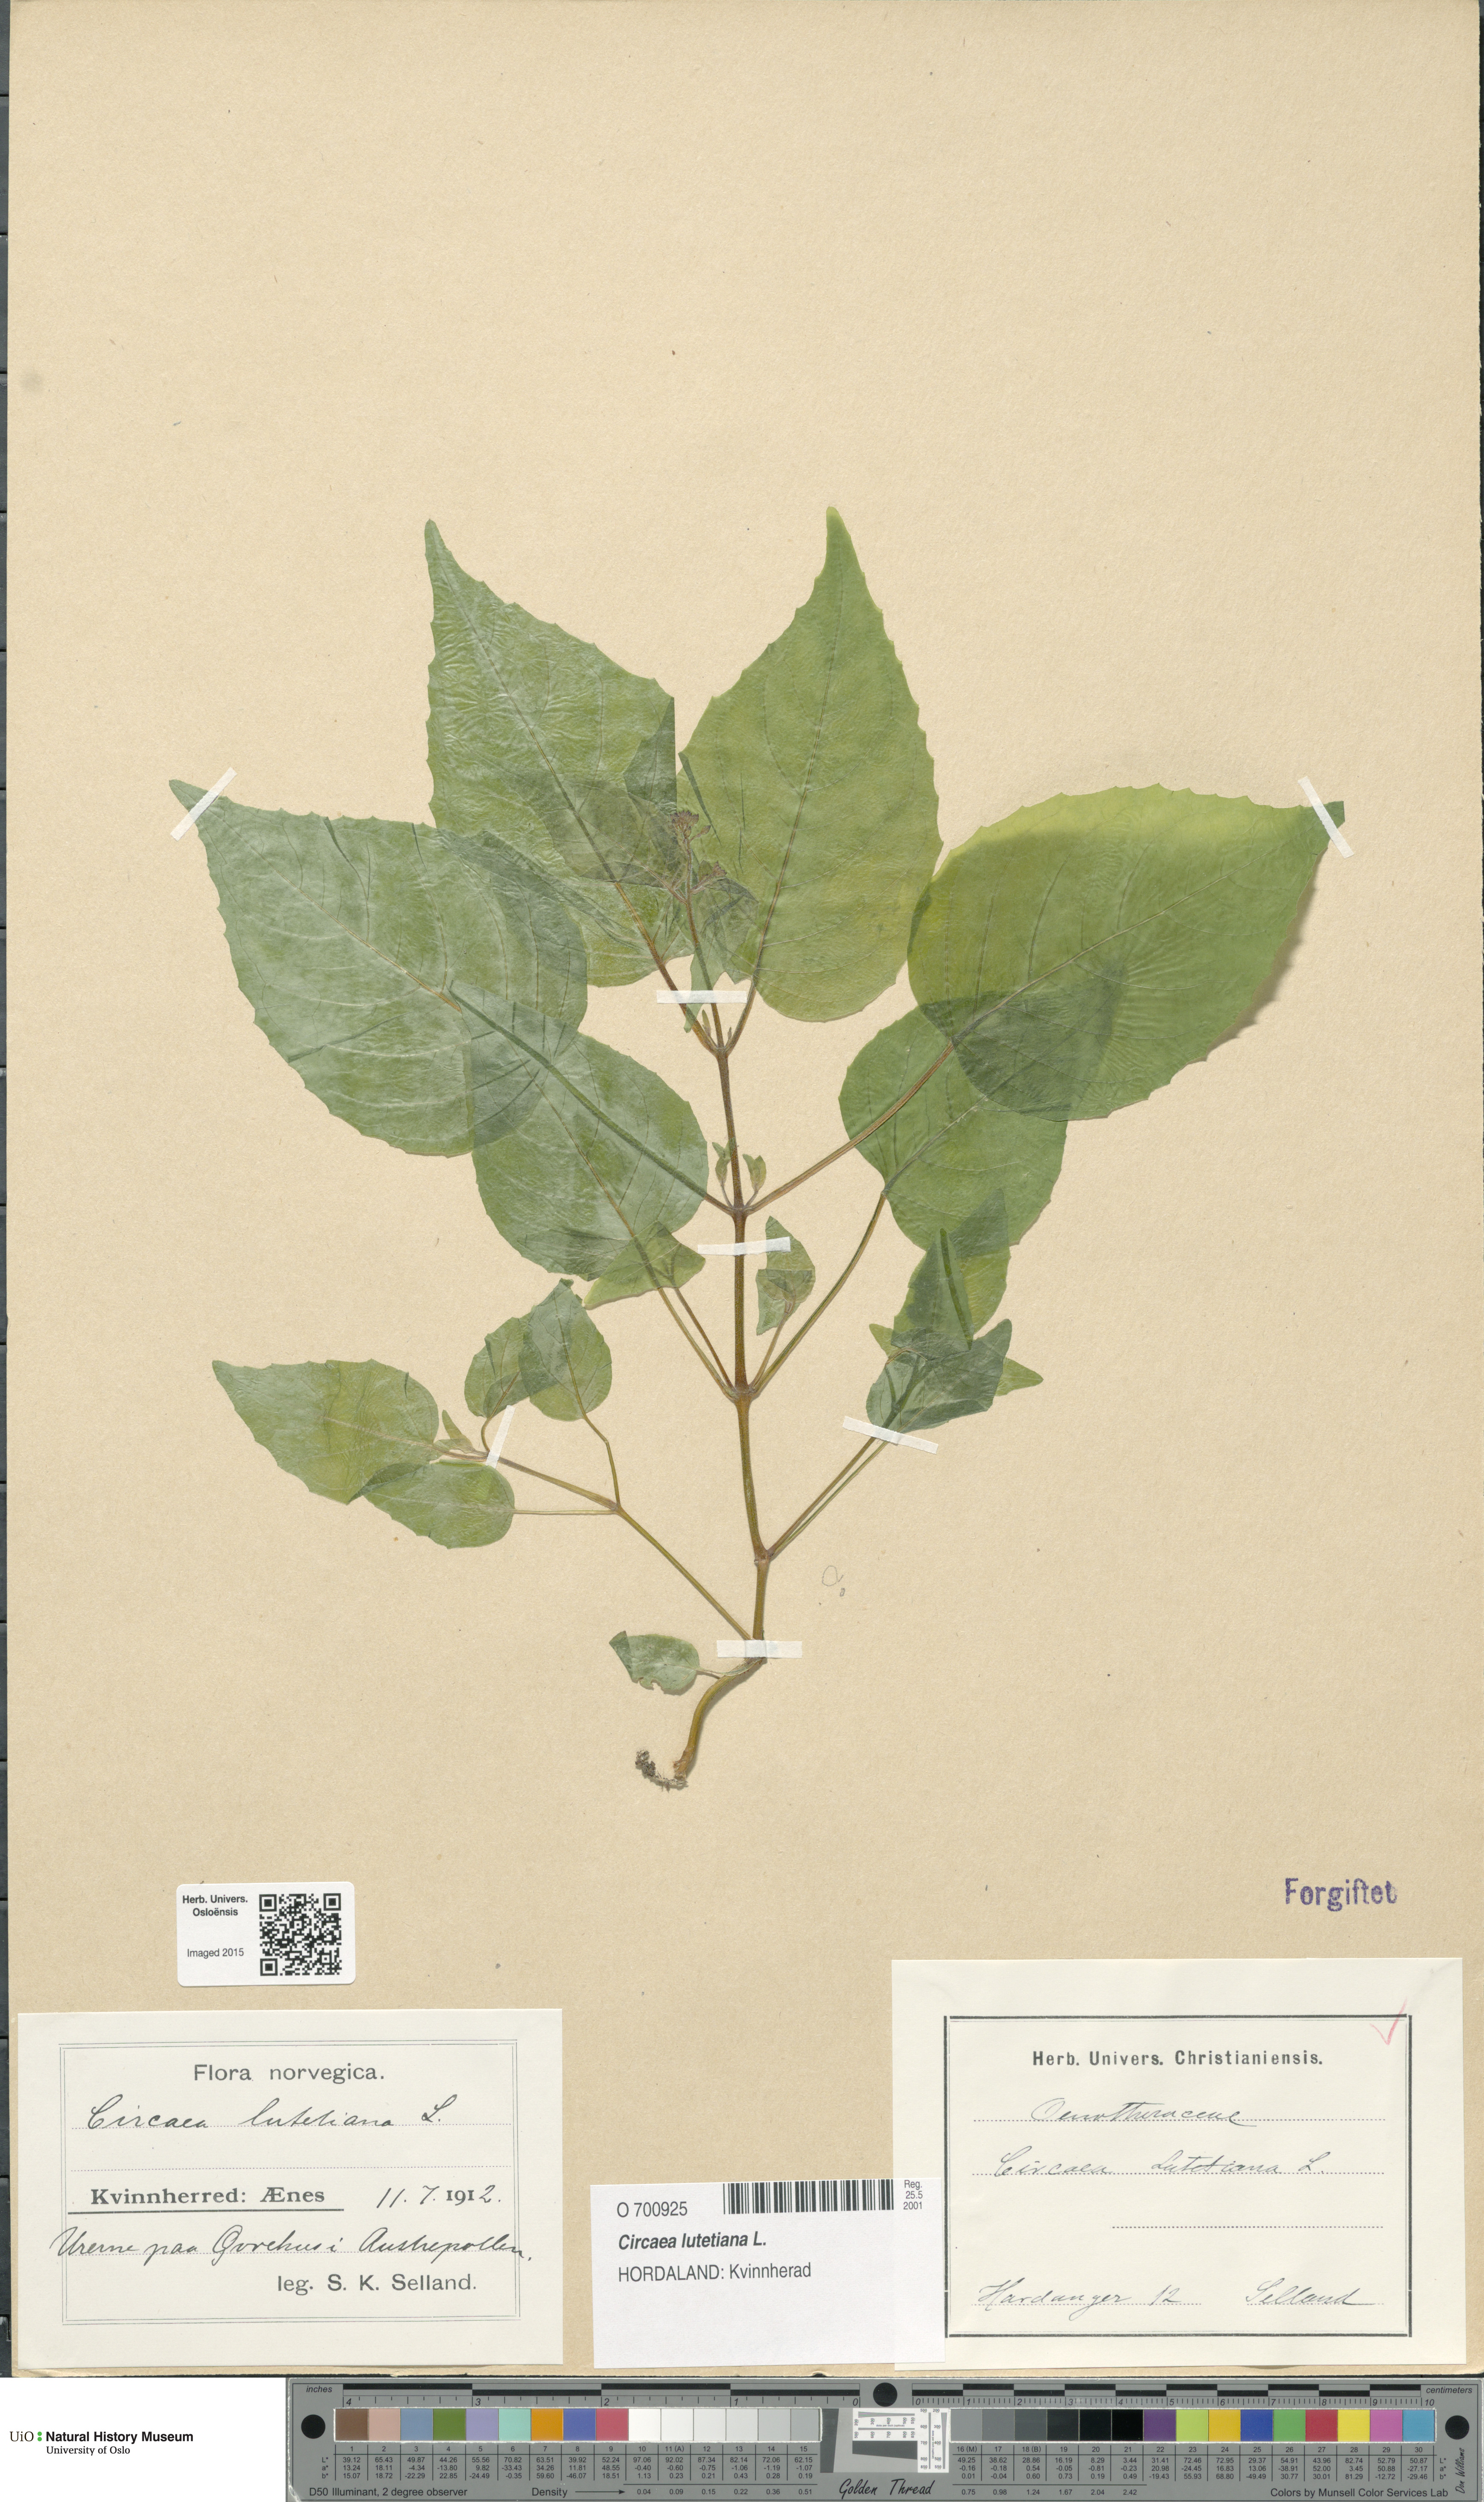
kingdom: Plantae
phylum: Tracheophyta
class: Magnoliopsida
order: Myrtales
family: Onagraceae
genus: Circaea
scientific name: Circaea lutetiana
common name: Enchanter's-nightshade
